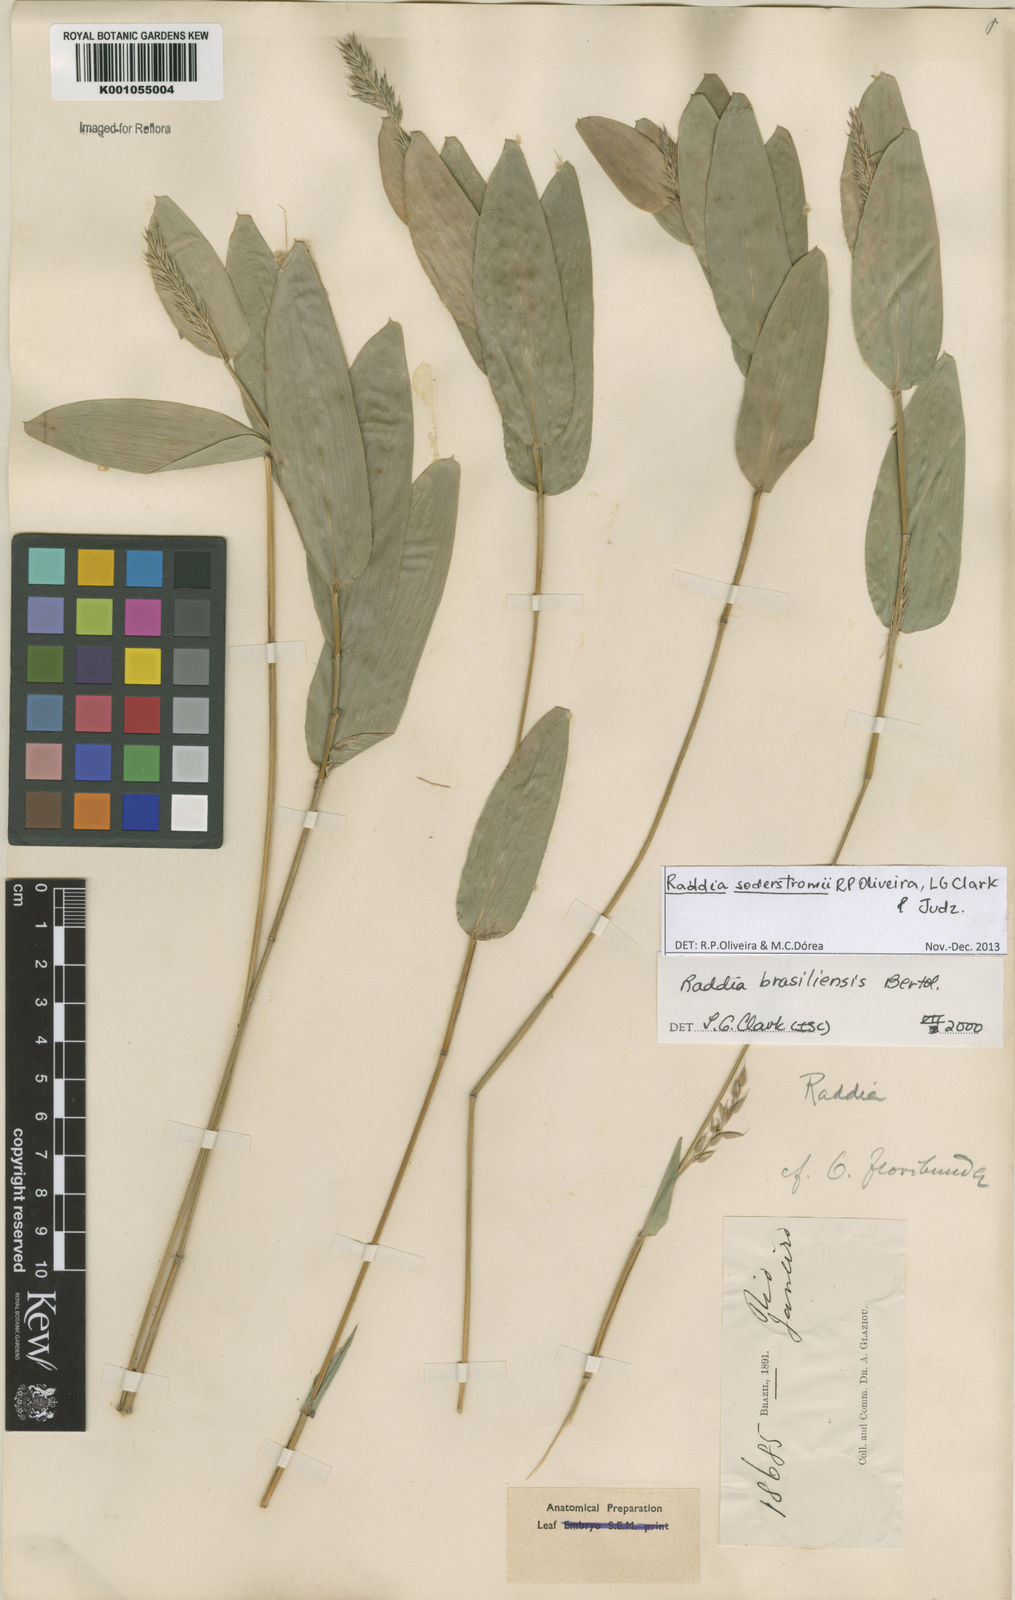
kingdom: Plantae
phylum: Tracheophyta
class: Liliopsida
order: Poales
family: Poaceae
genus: Raddia
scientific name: Raddia soderstromii
